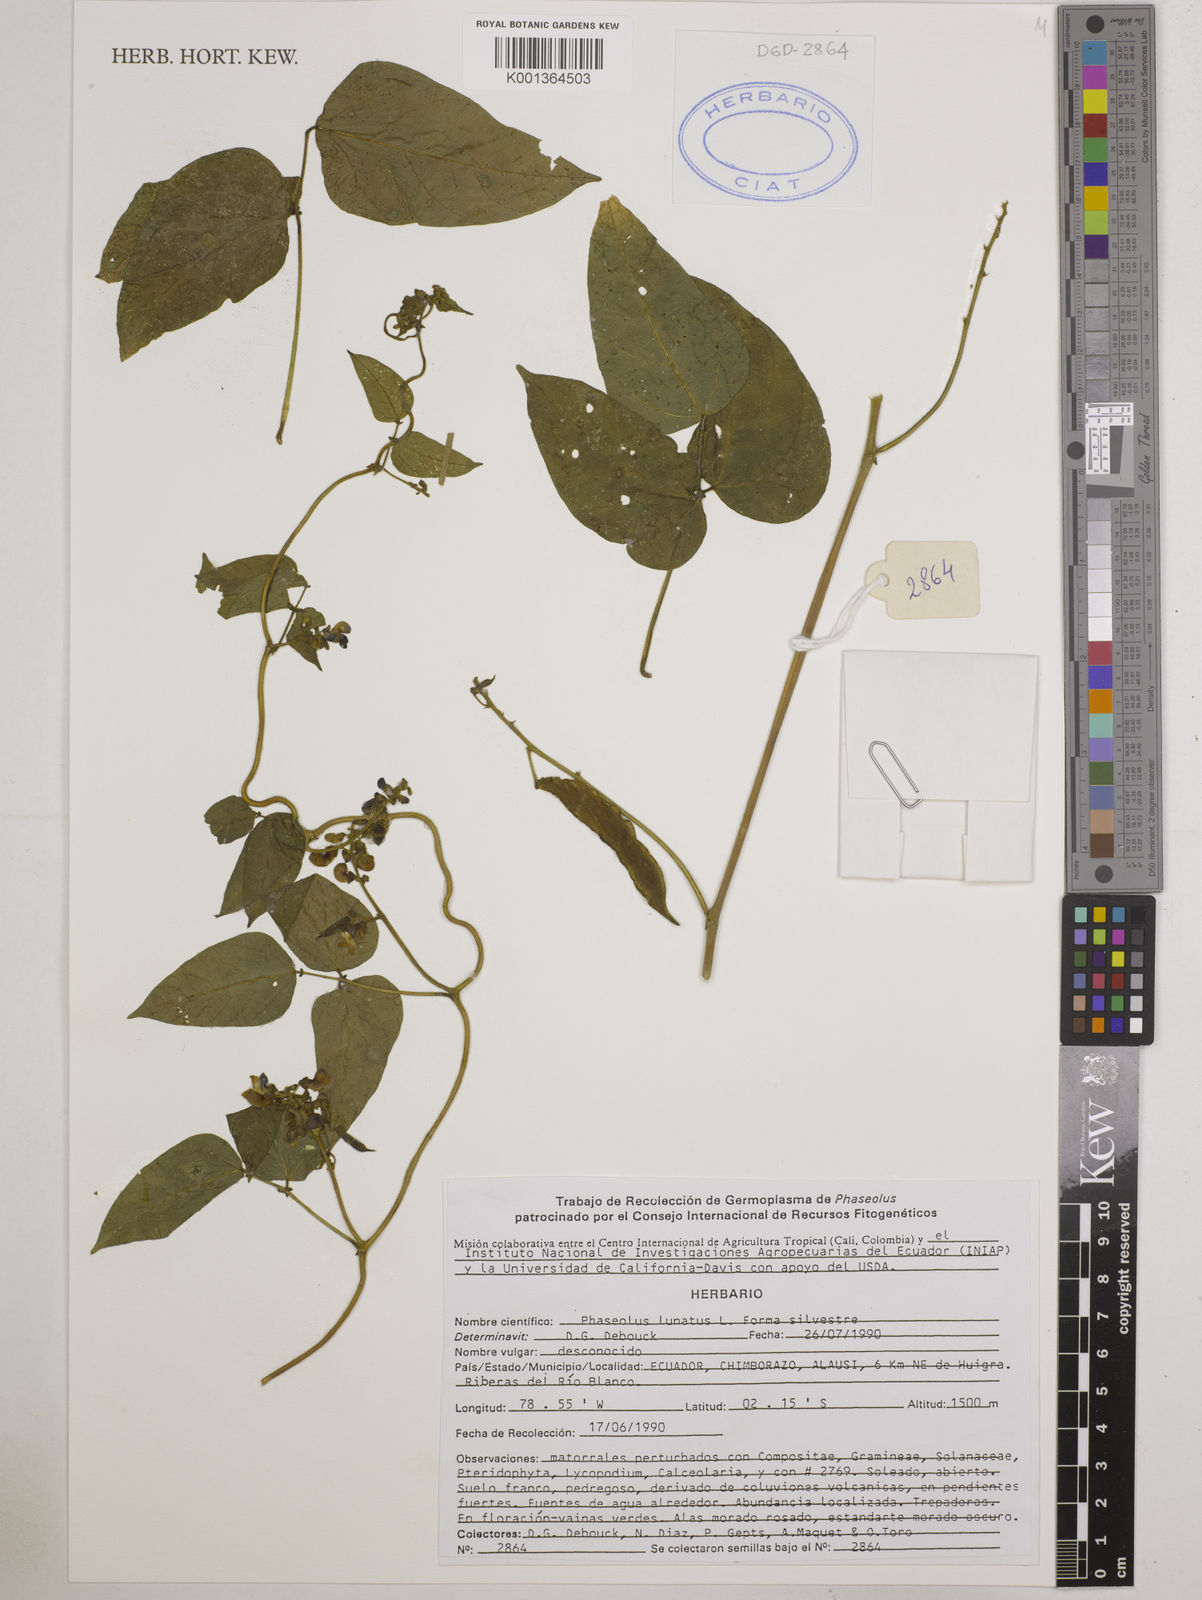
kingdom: Plantae
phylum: Tracheophyta
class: Magnoliopsida
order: Fabales
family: Fabaceae
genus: Phaseolus
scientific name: Phaseolus
